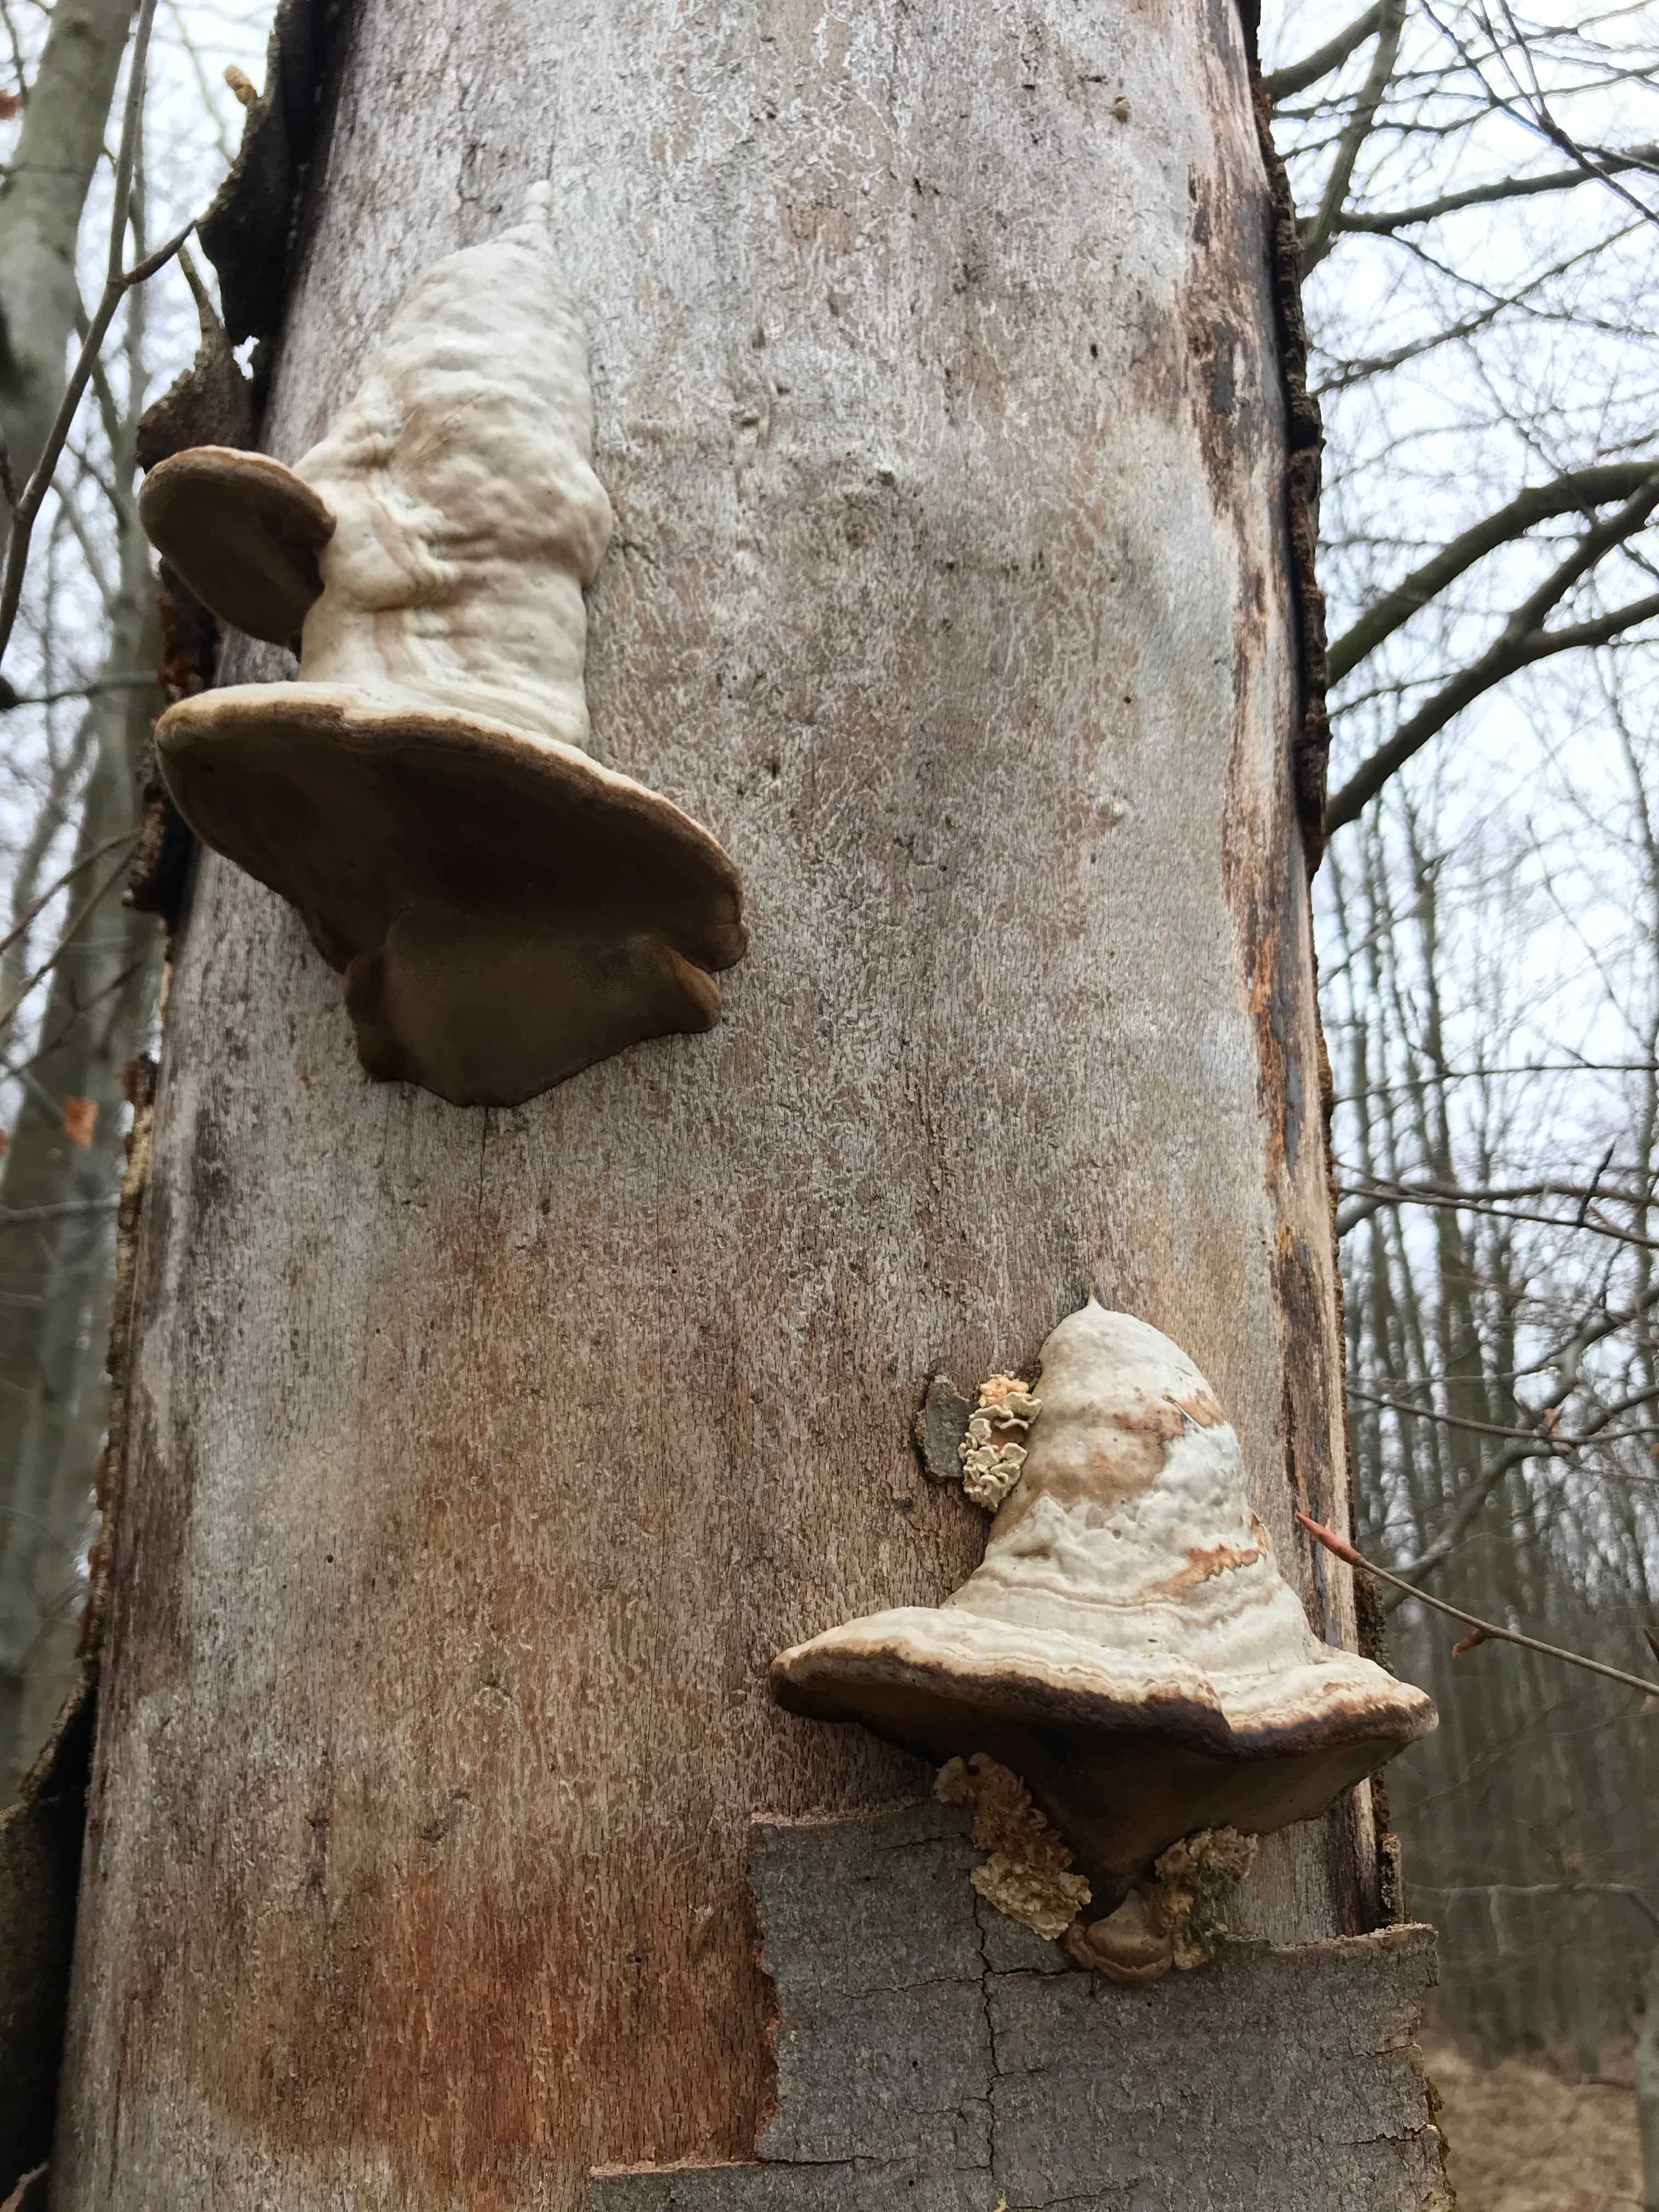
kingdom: Fungi
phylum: Basidiomycota
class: Agaricomycetes
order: Polyporales
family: Polyporaceae
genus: Fomes
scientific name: Fomes fomentarius
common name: tøndersvamp
